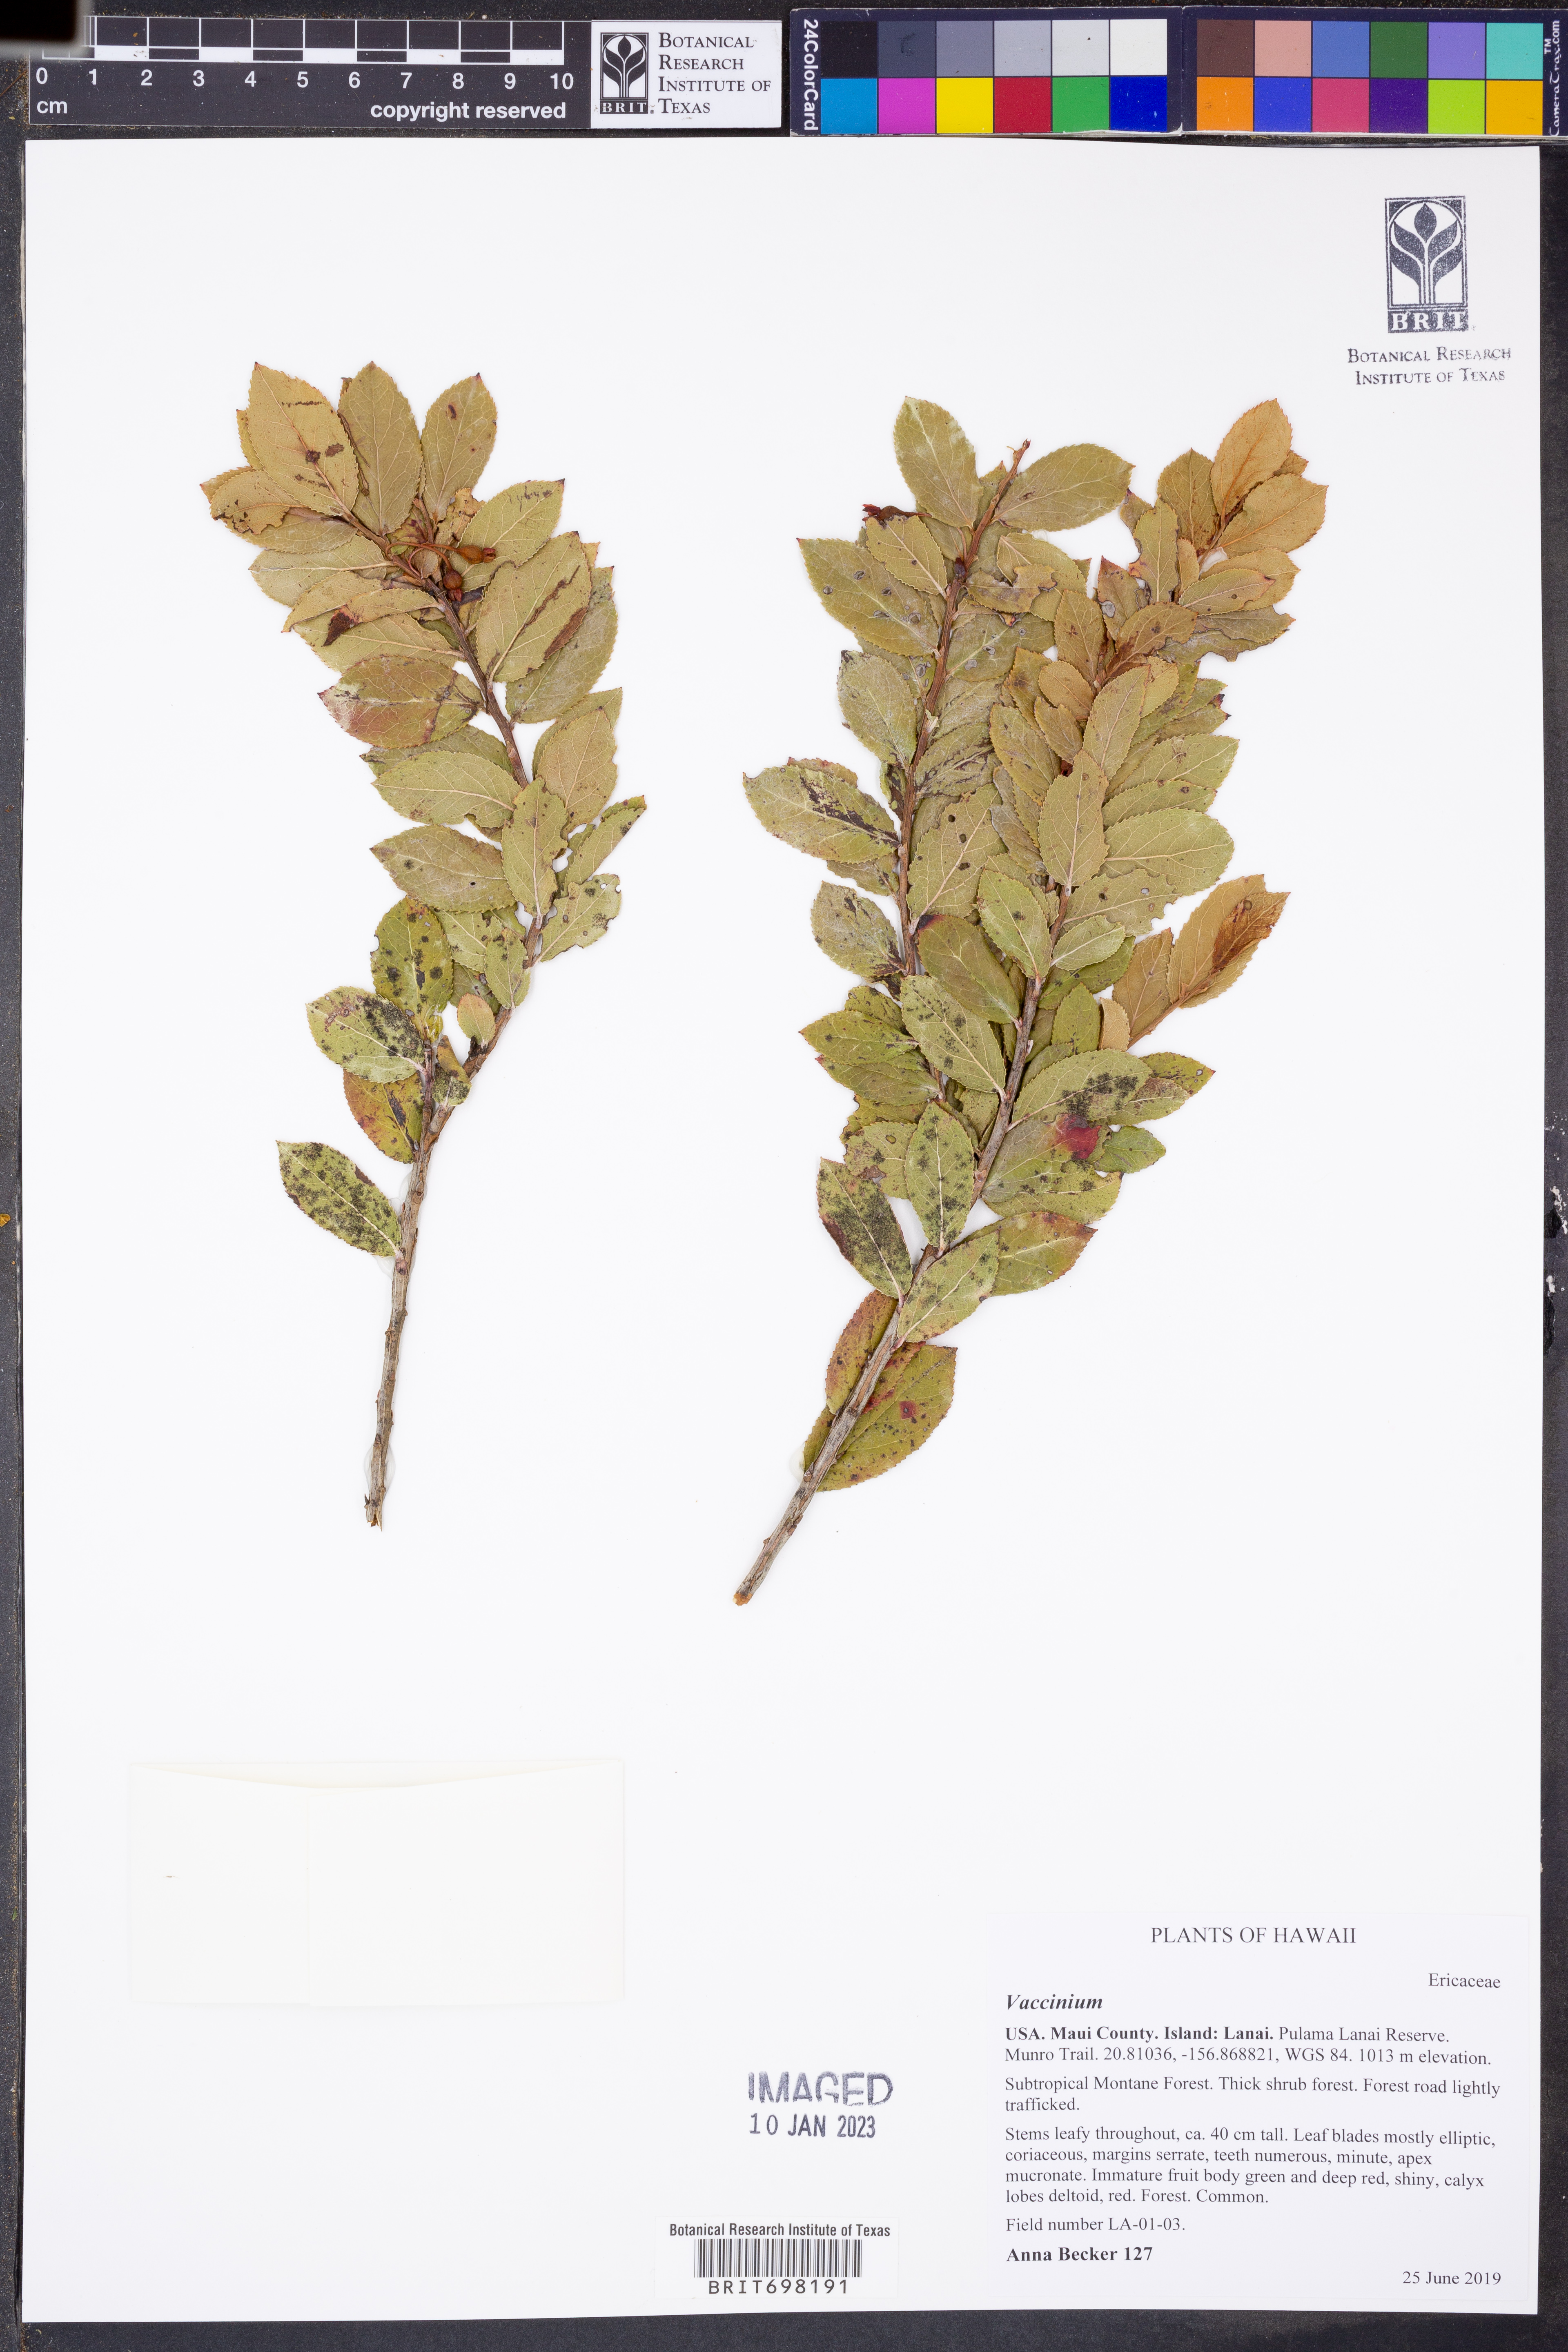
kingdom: Plantae
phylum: Tracheophyta
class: Magnoliopsida
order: Ericales
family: Ericaceae
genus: Vaccinium
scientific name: Vaccinium
